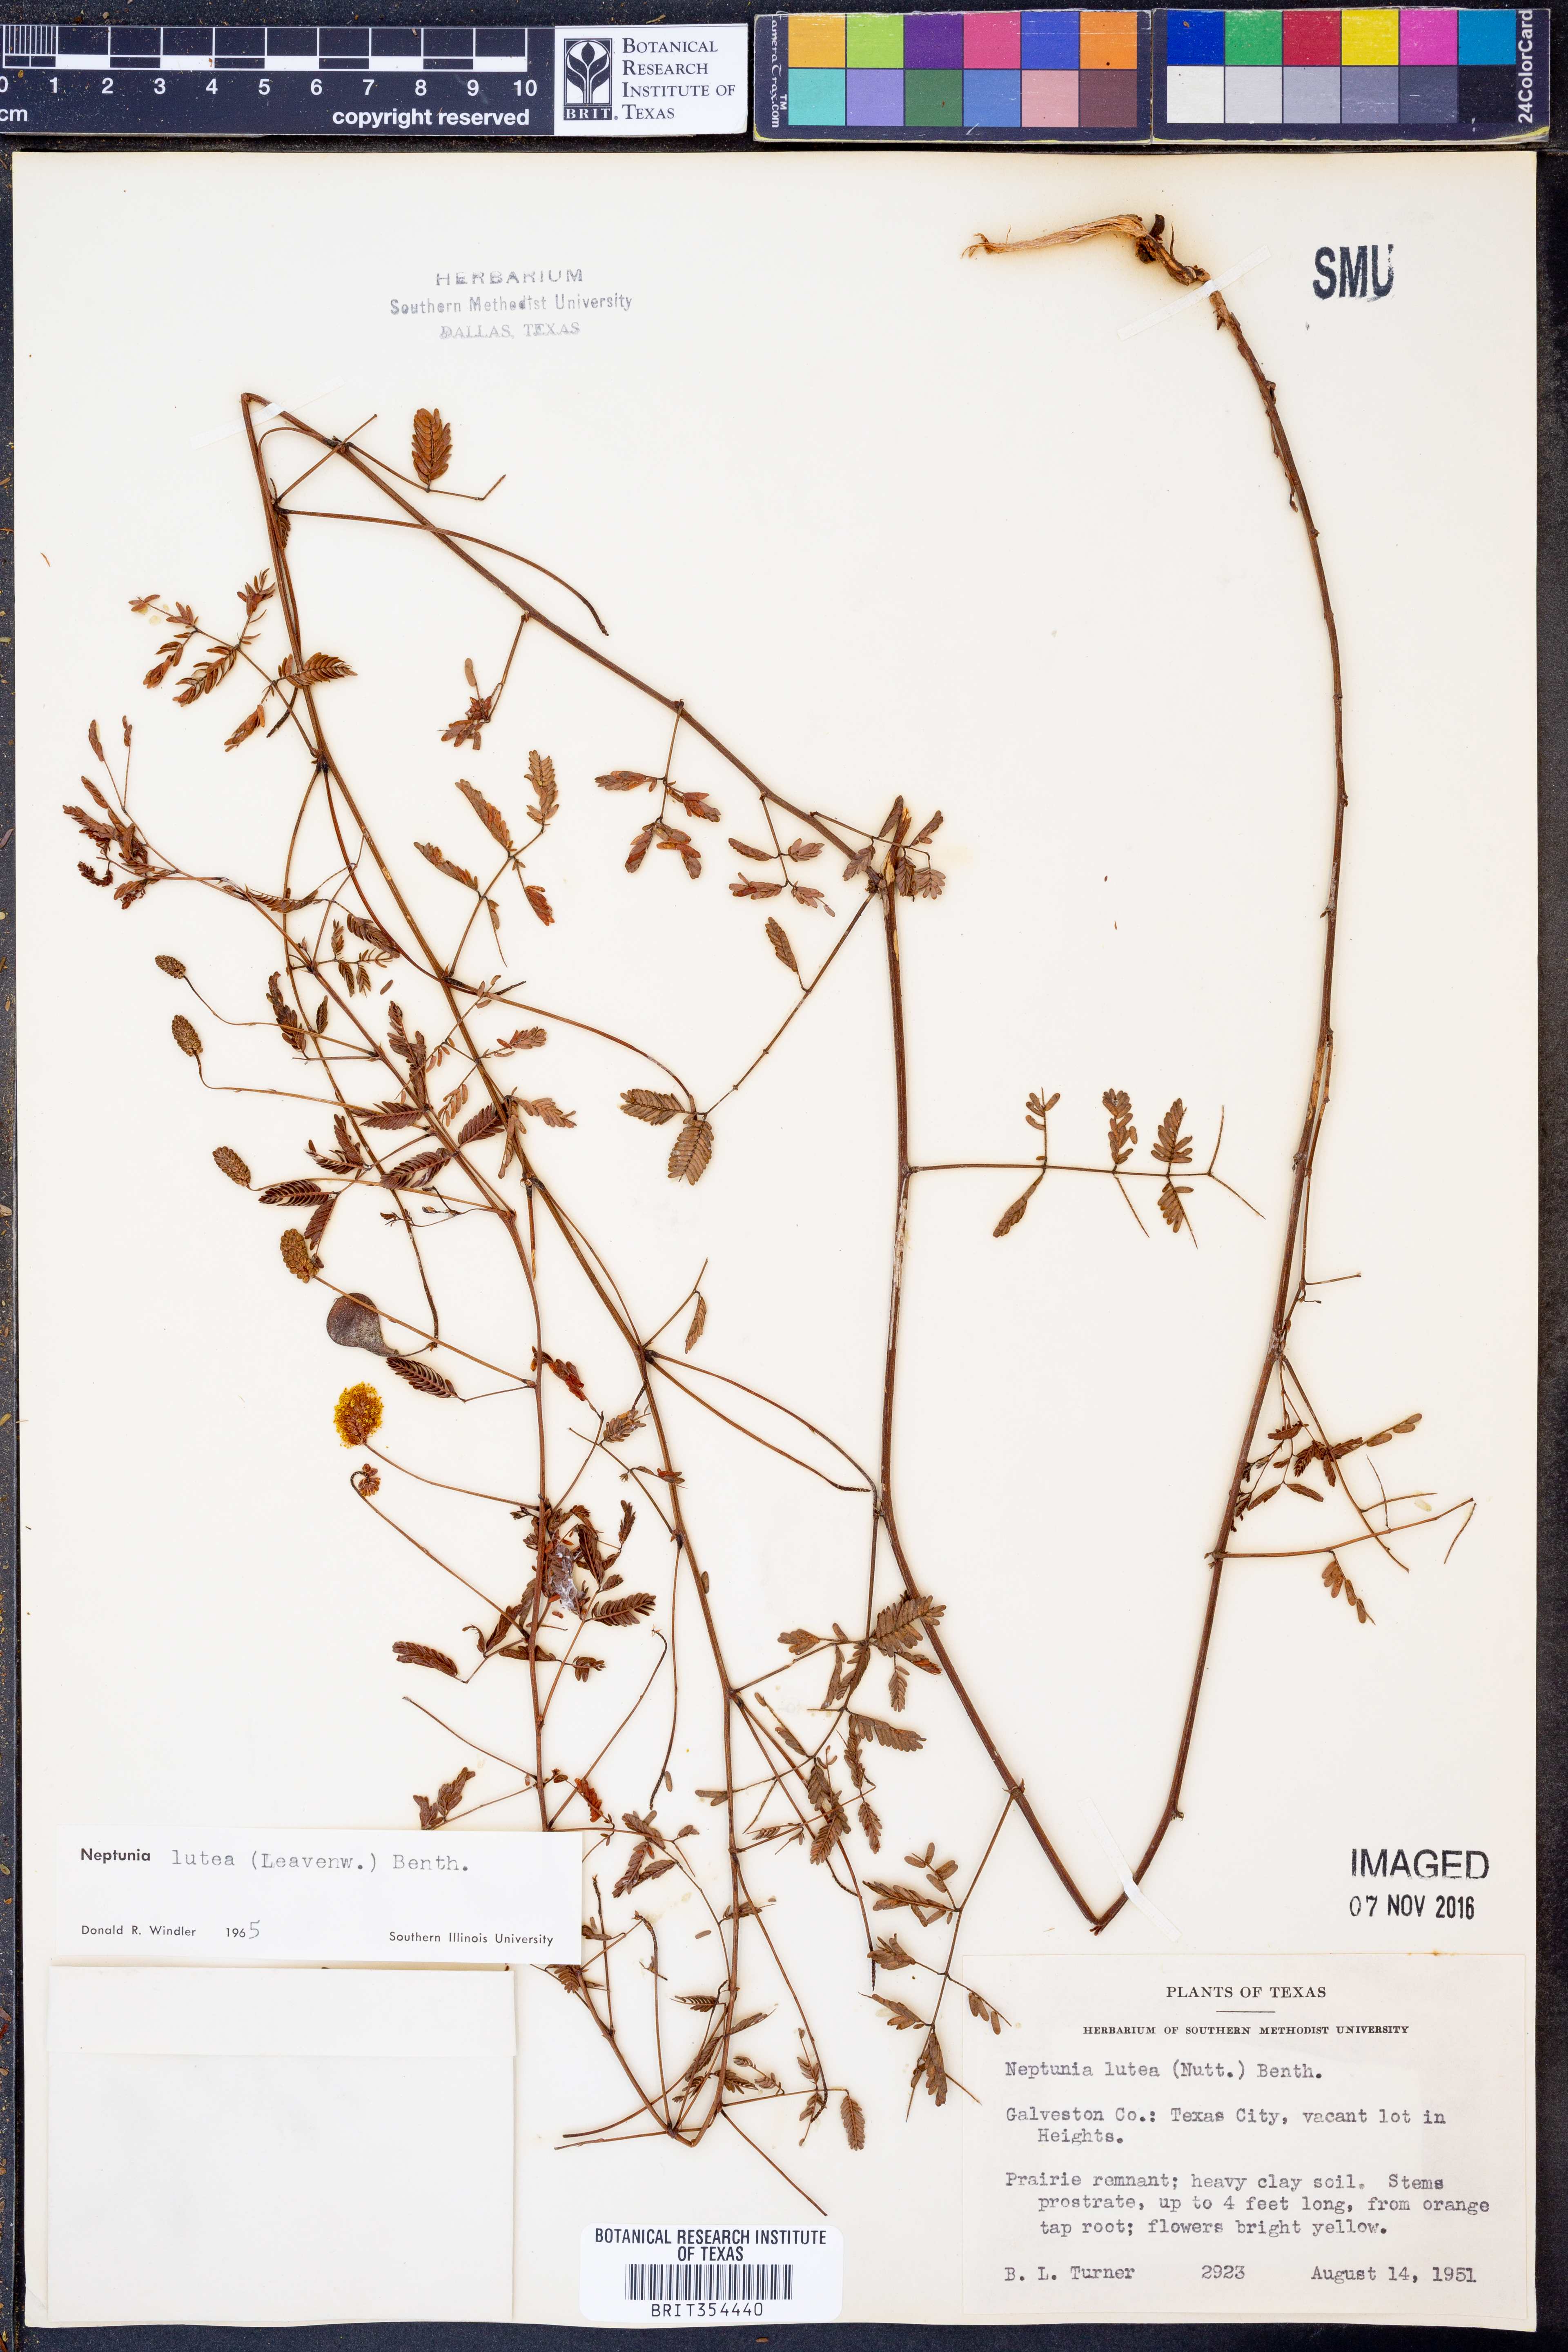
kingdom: Plantae
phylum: Tracheophyta
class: Magnoliopsida
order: Fabales
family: Fabaceae
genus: Neptunia
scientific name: Neptunia lutea
